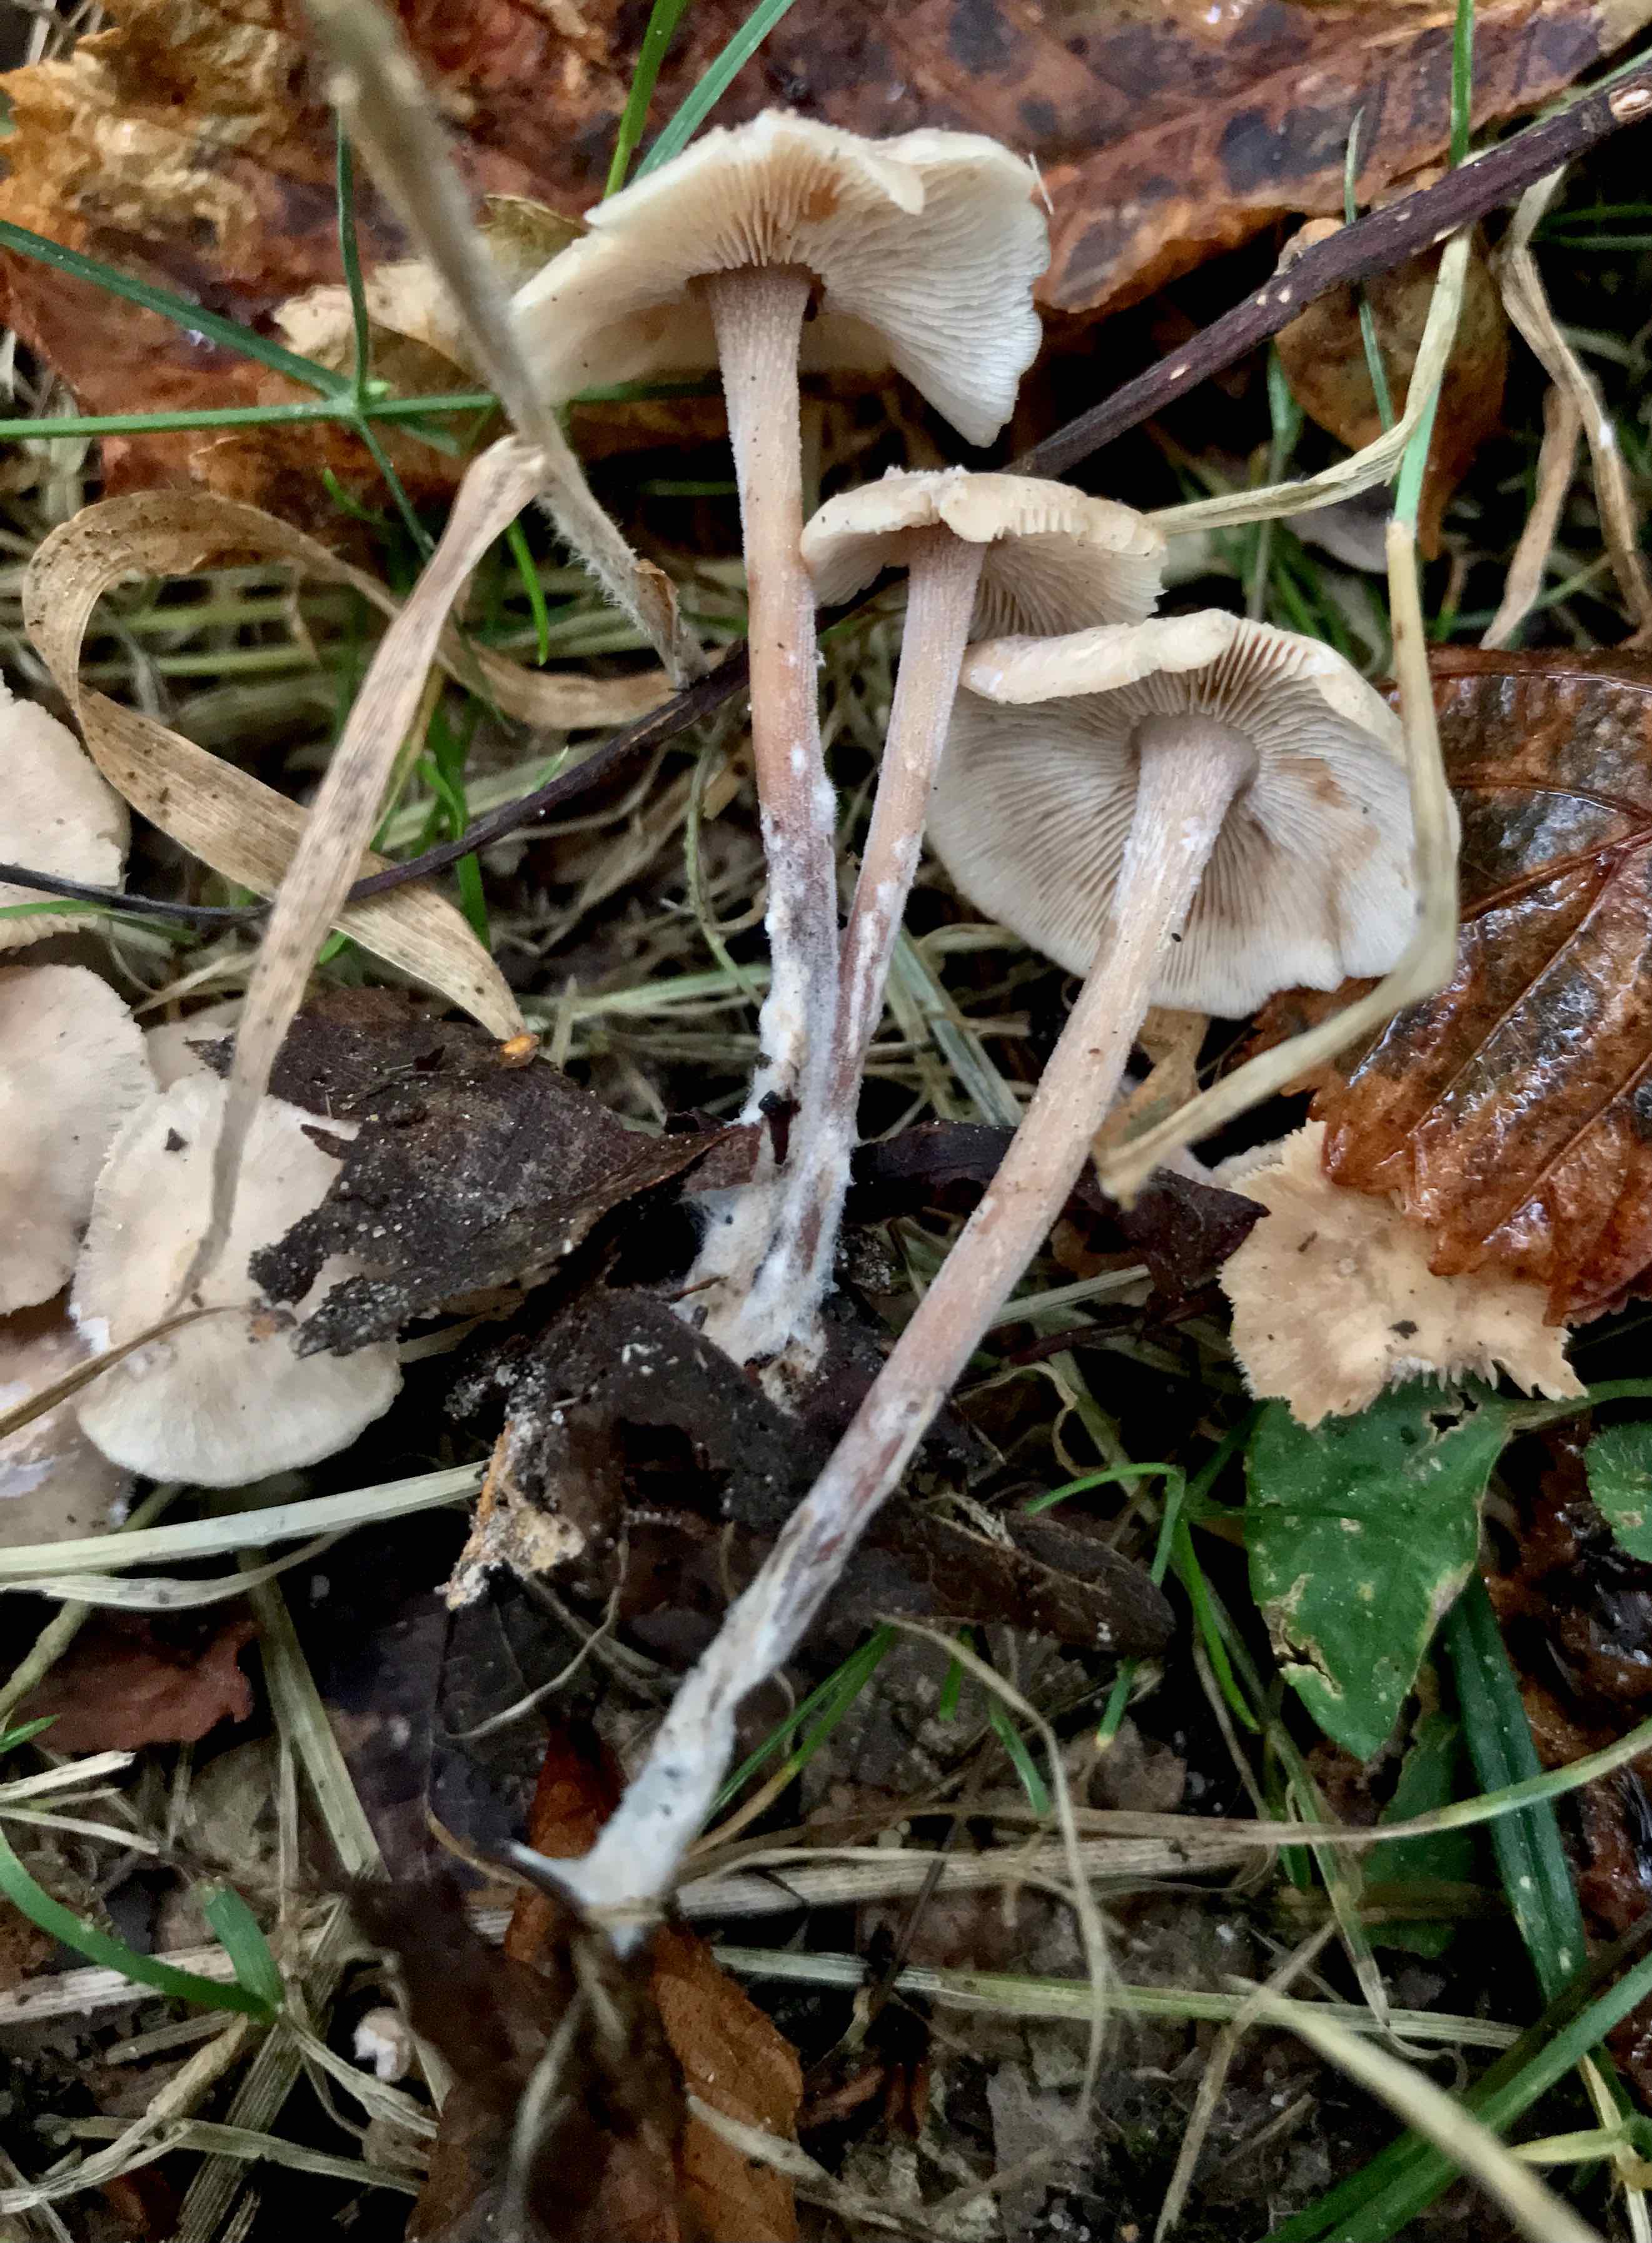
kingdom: Fungi
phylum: Basidiomycota
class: Agaricomycetes
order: Agaricales
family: Omphalotaceae
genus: Collybiopsis
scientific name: Collybiopsis confluens
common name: knippe-fladhat
